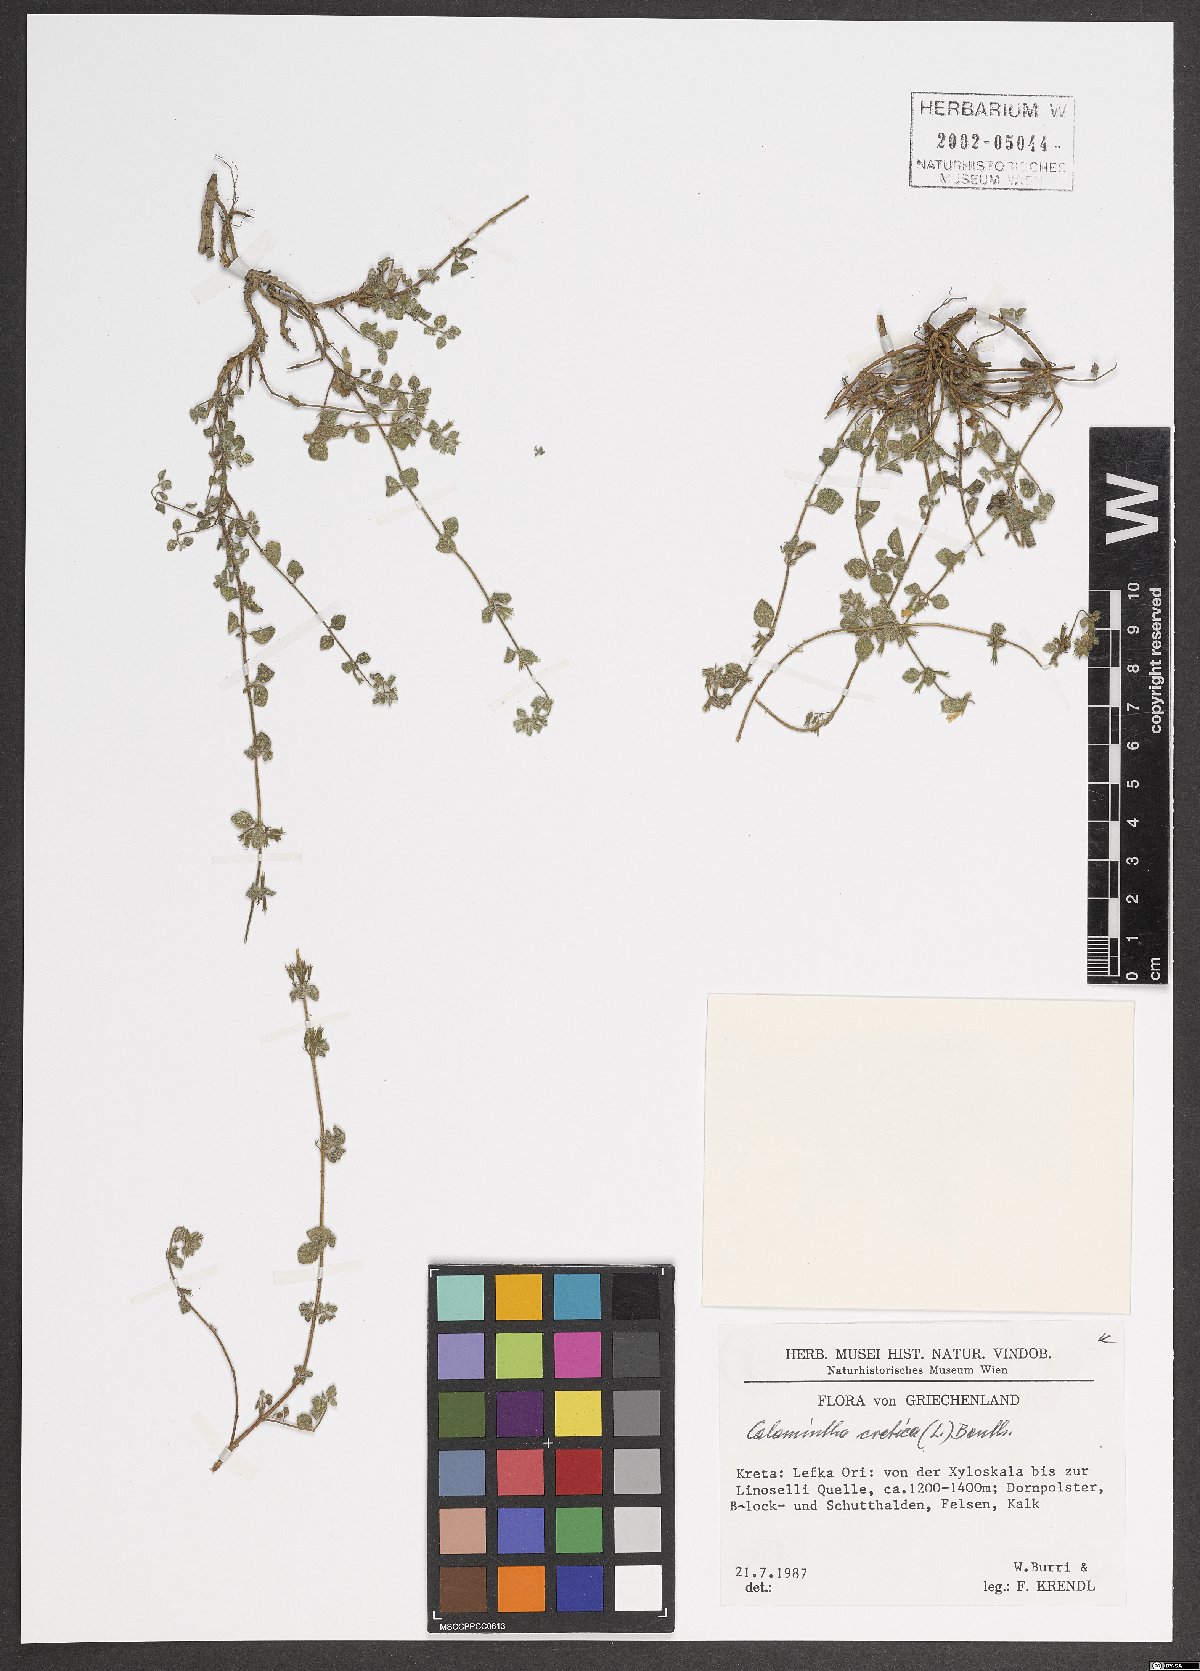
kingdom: Plantae
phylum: Tracheophyta
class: Magnoliopsida
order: Lamiales
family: Lamiaceae
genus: Clinopodium
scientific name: Clinopodium creticum
